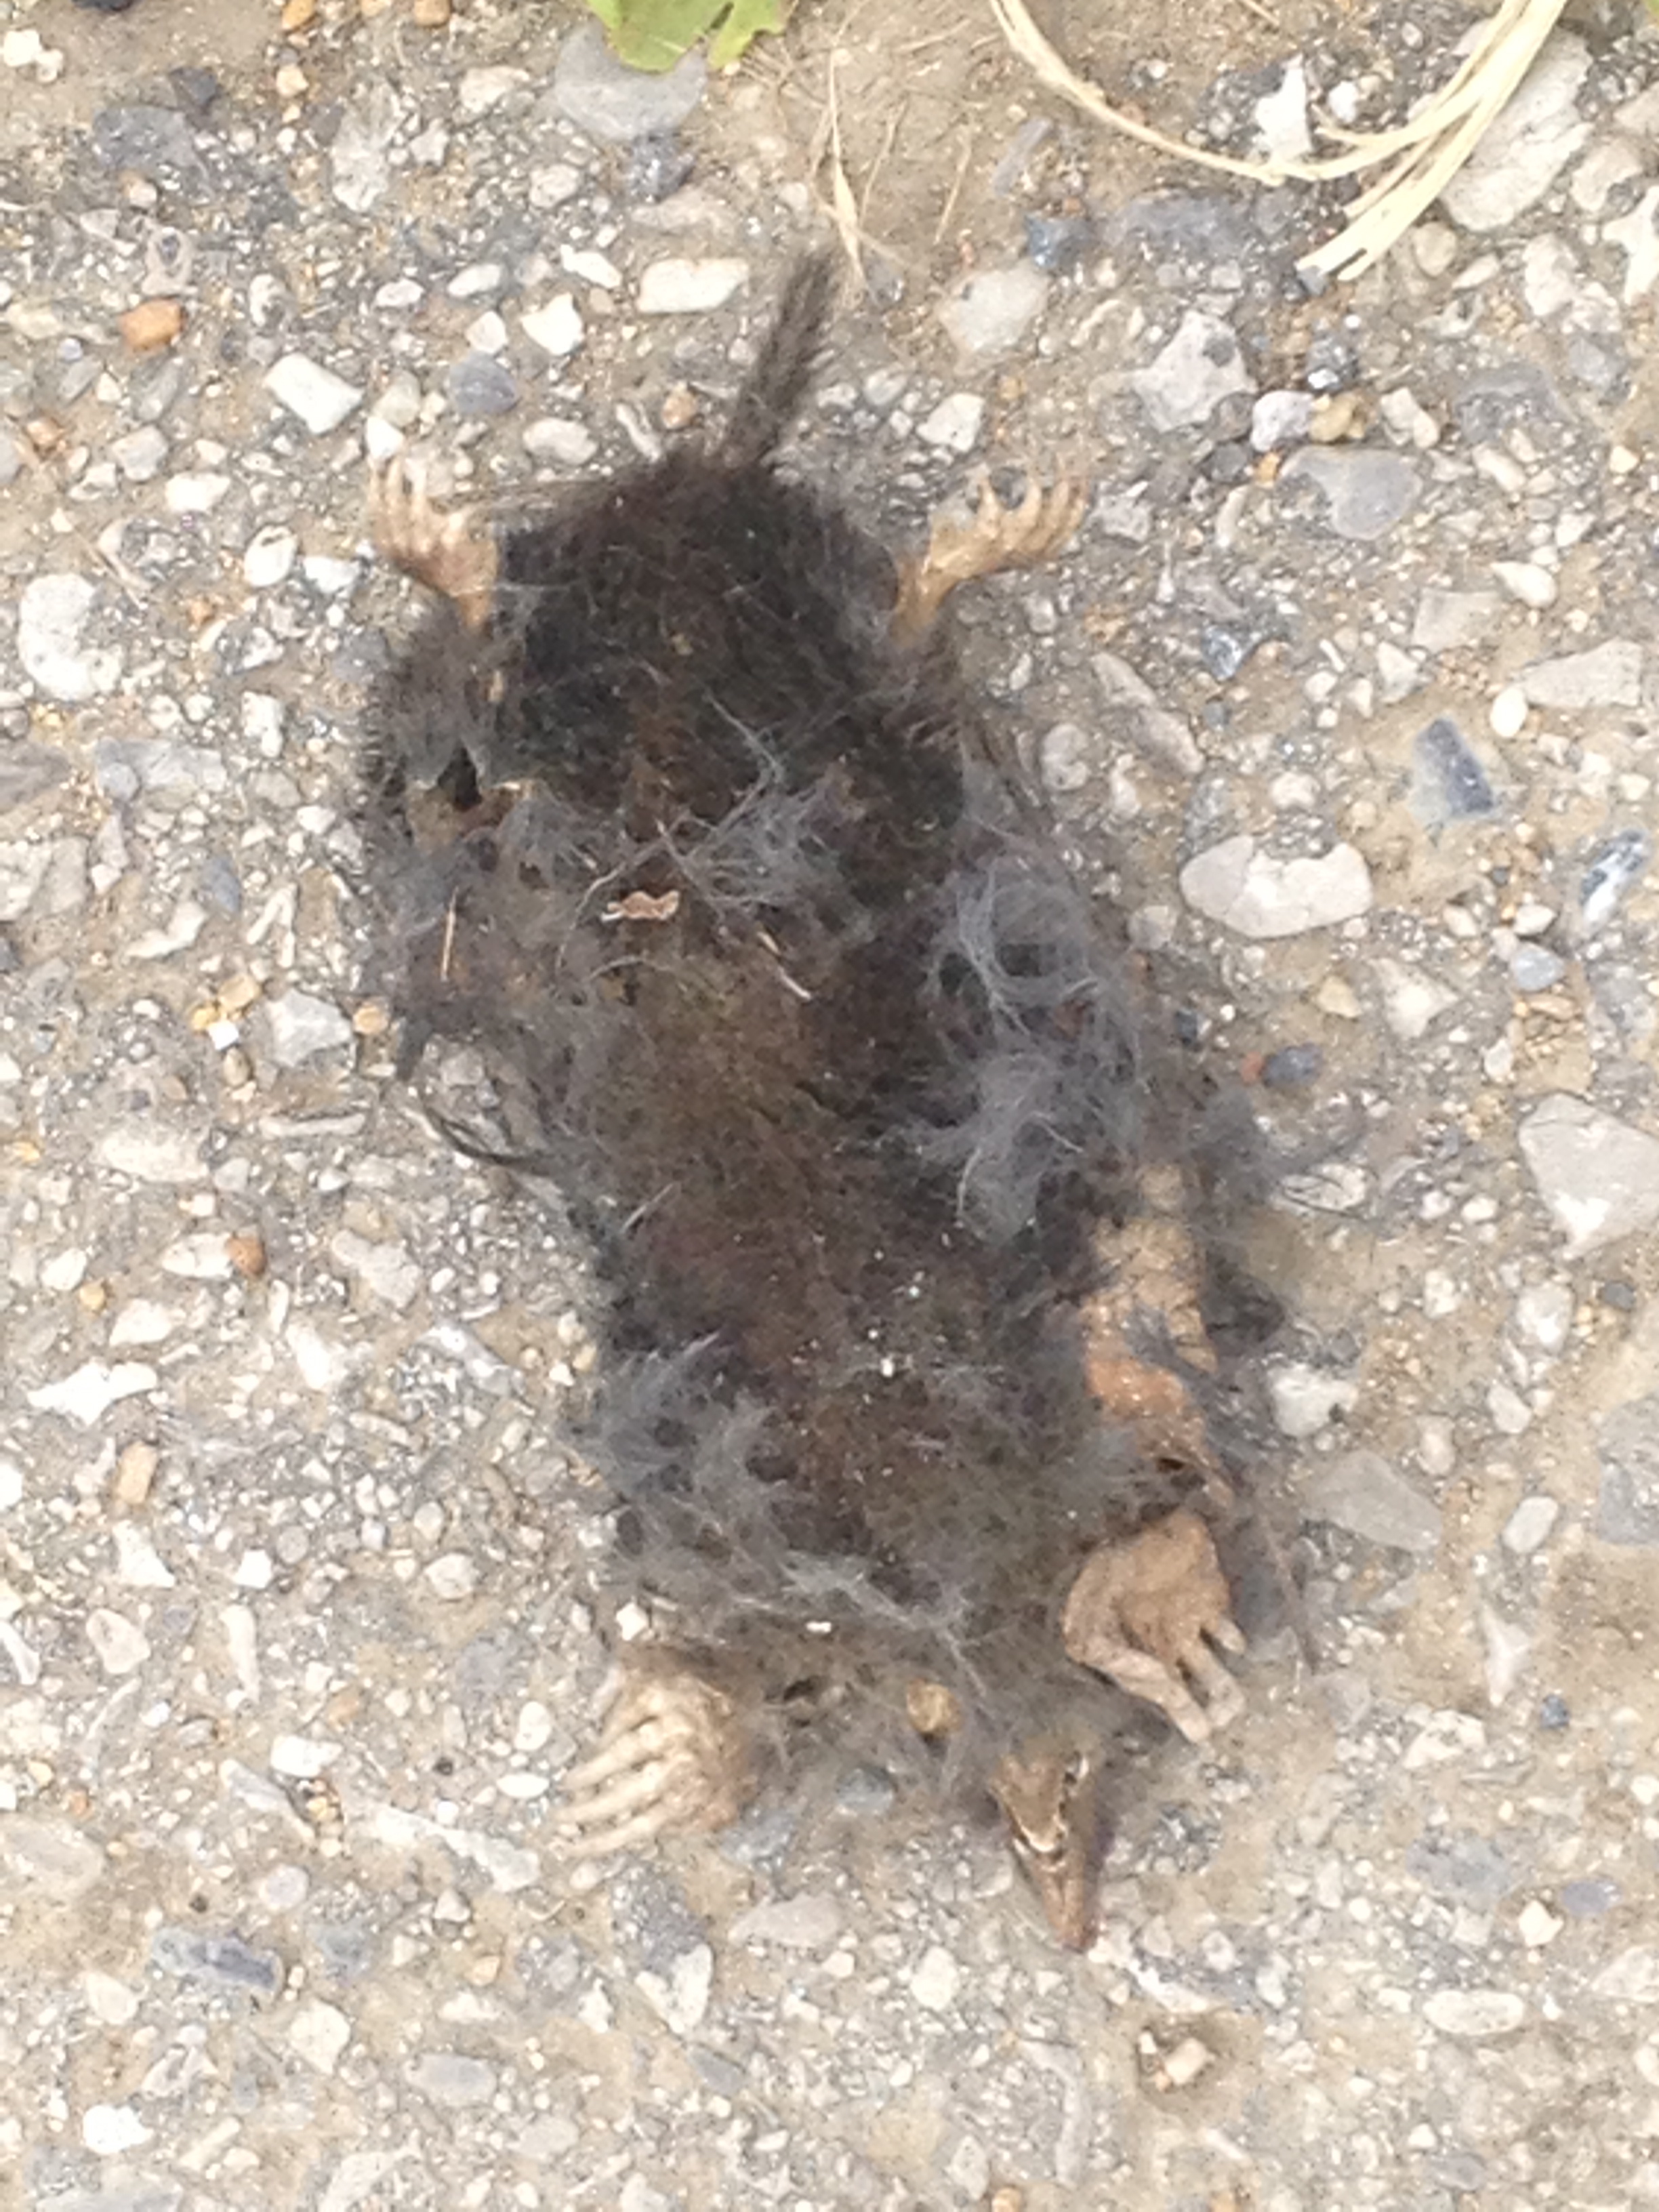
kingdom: Animalia
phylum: Chordata
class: Mammalia
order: Soricomorpha
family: Talpidae
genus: Talpa
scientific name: Talpa europaea
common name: European mole
